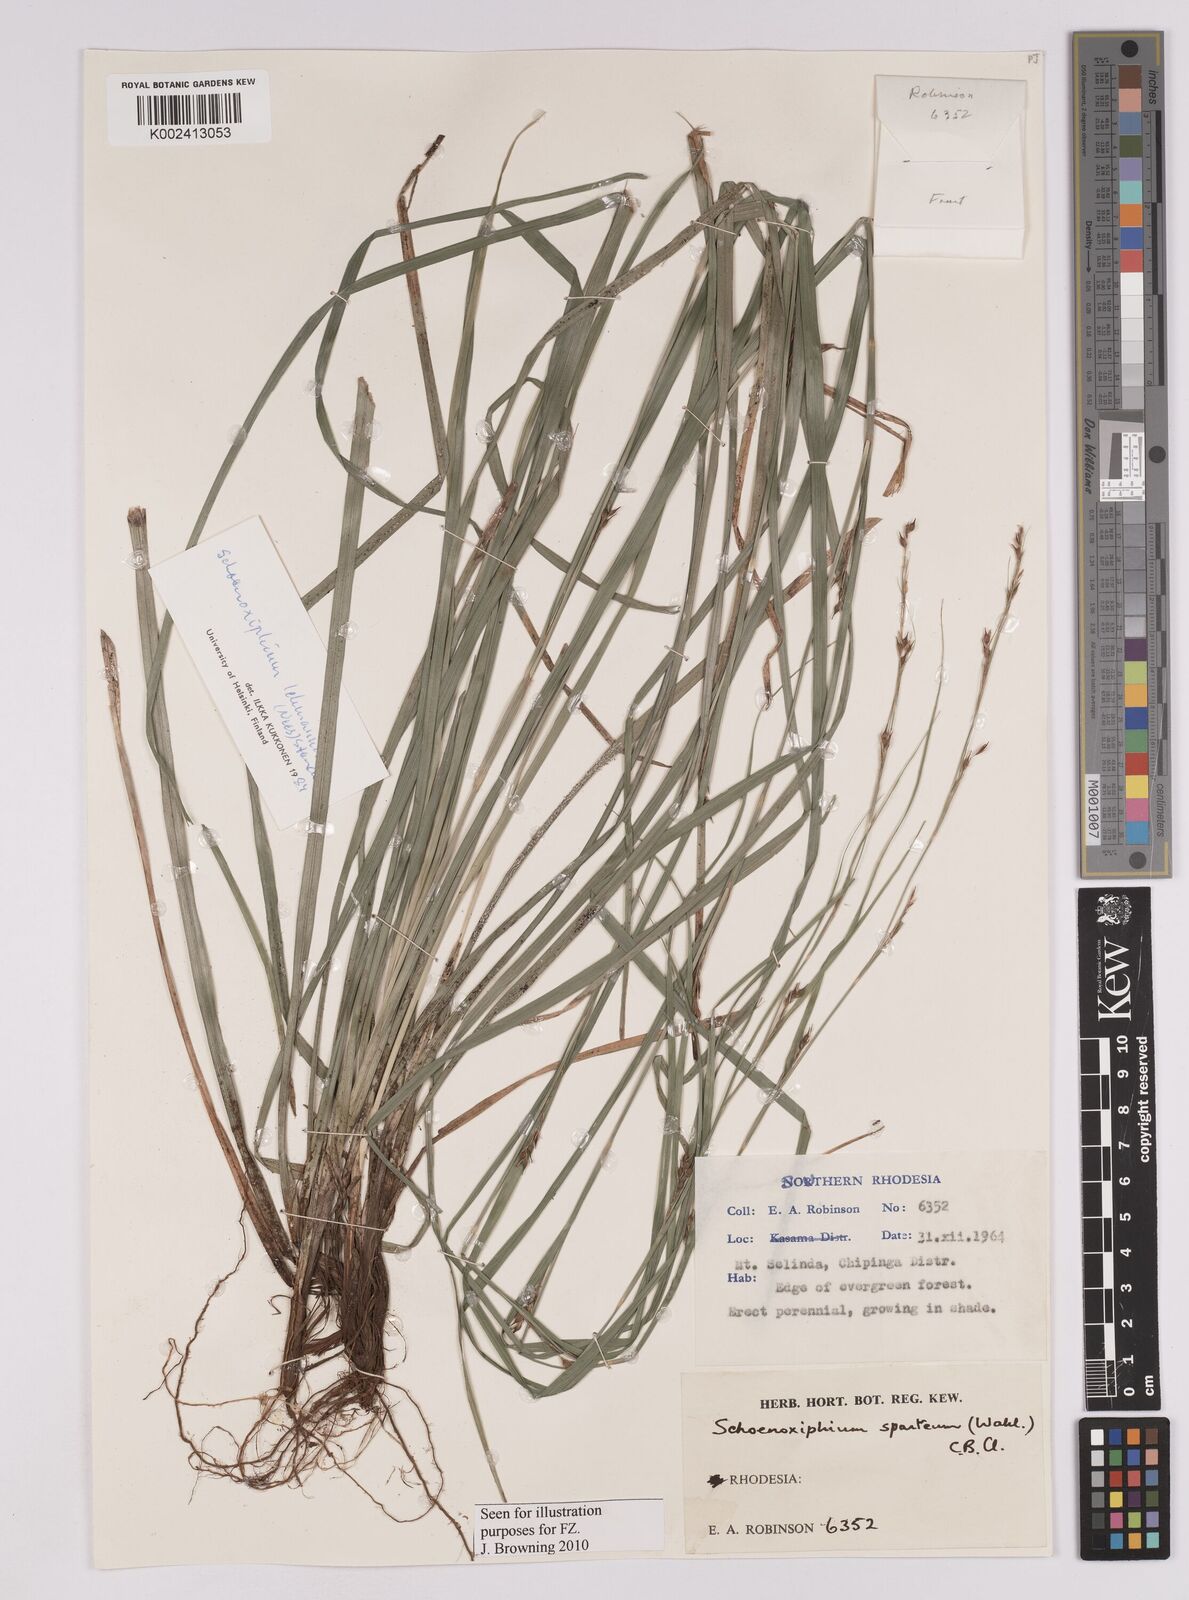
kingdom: Plantae
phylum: Tracheophyta
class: Liliopsida
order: Poales
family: Cyperaceae
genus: Carex
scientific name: Carex uhligii
